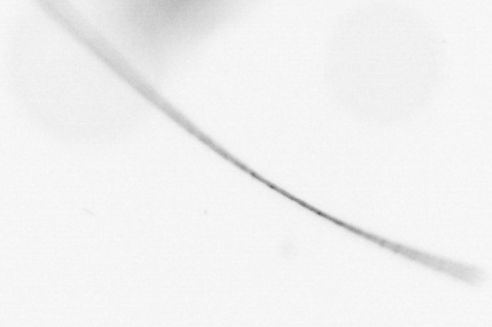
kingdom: Chromista
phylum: Ochrophyta
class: Bacillariophyceae
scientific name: Bacillariophyceae
